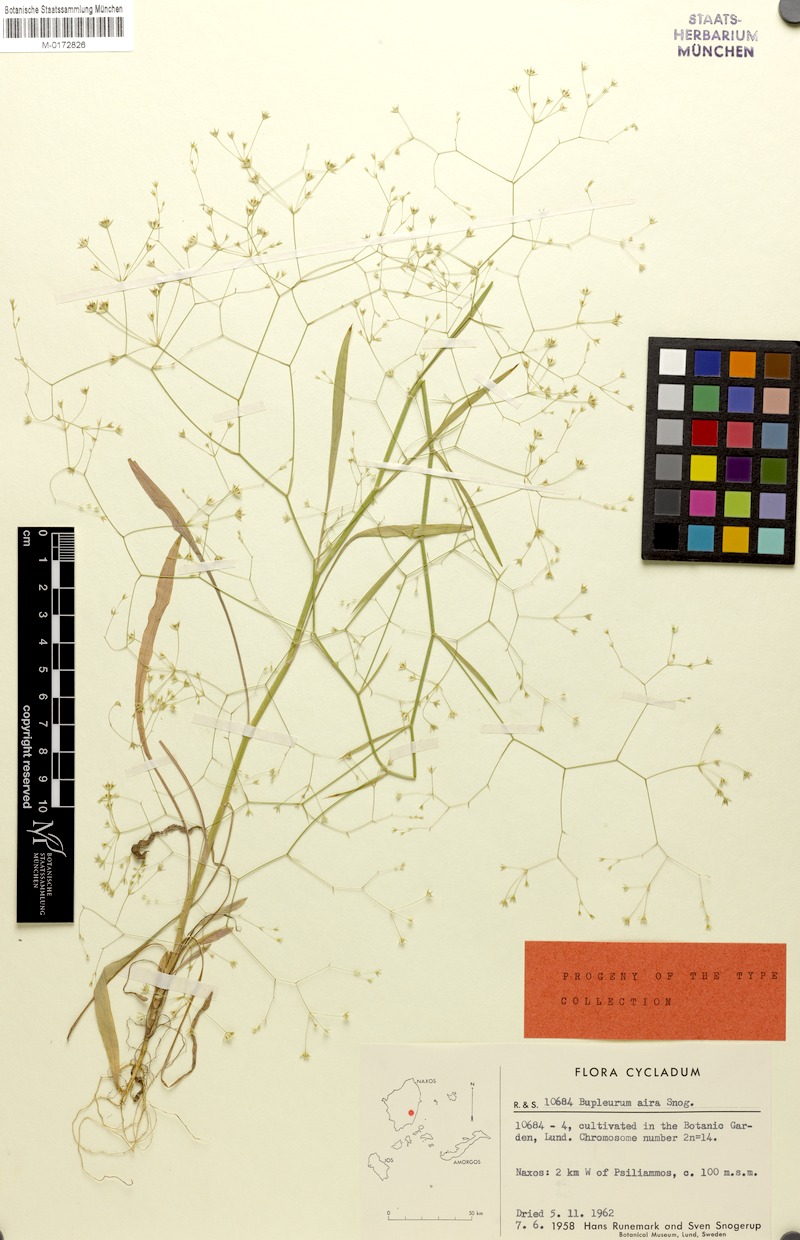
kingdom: Plantae
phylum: Tracheophyta
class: Magnoliopsida
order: Apiales
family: Apiaceae
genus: Bupleurum
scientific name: Bupleurum aira
